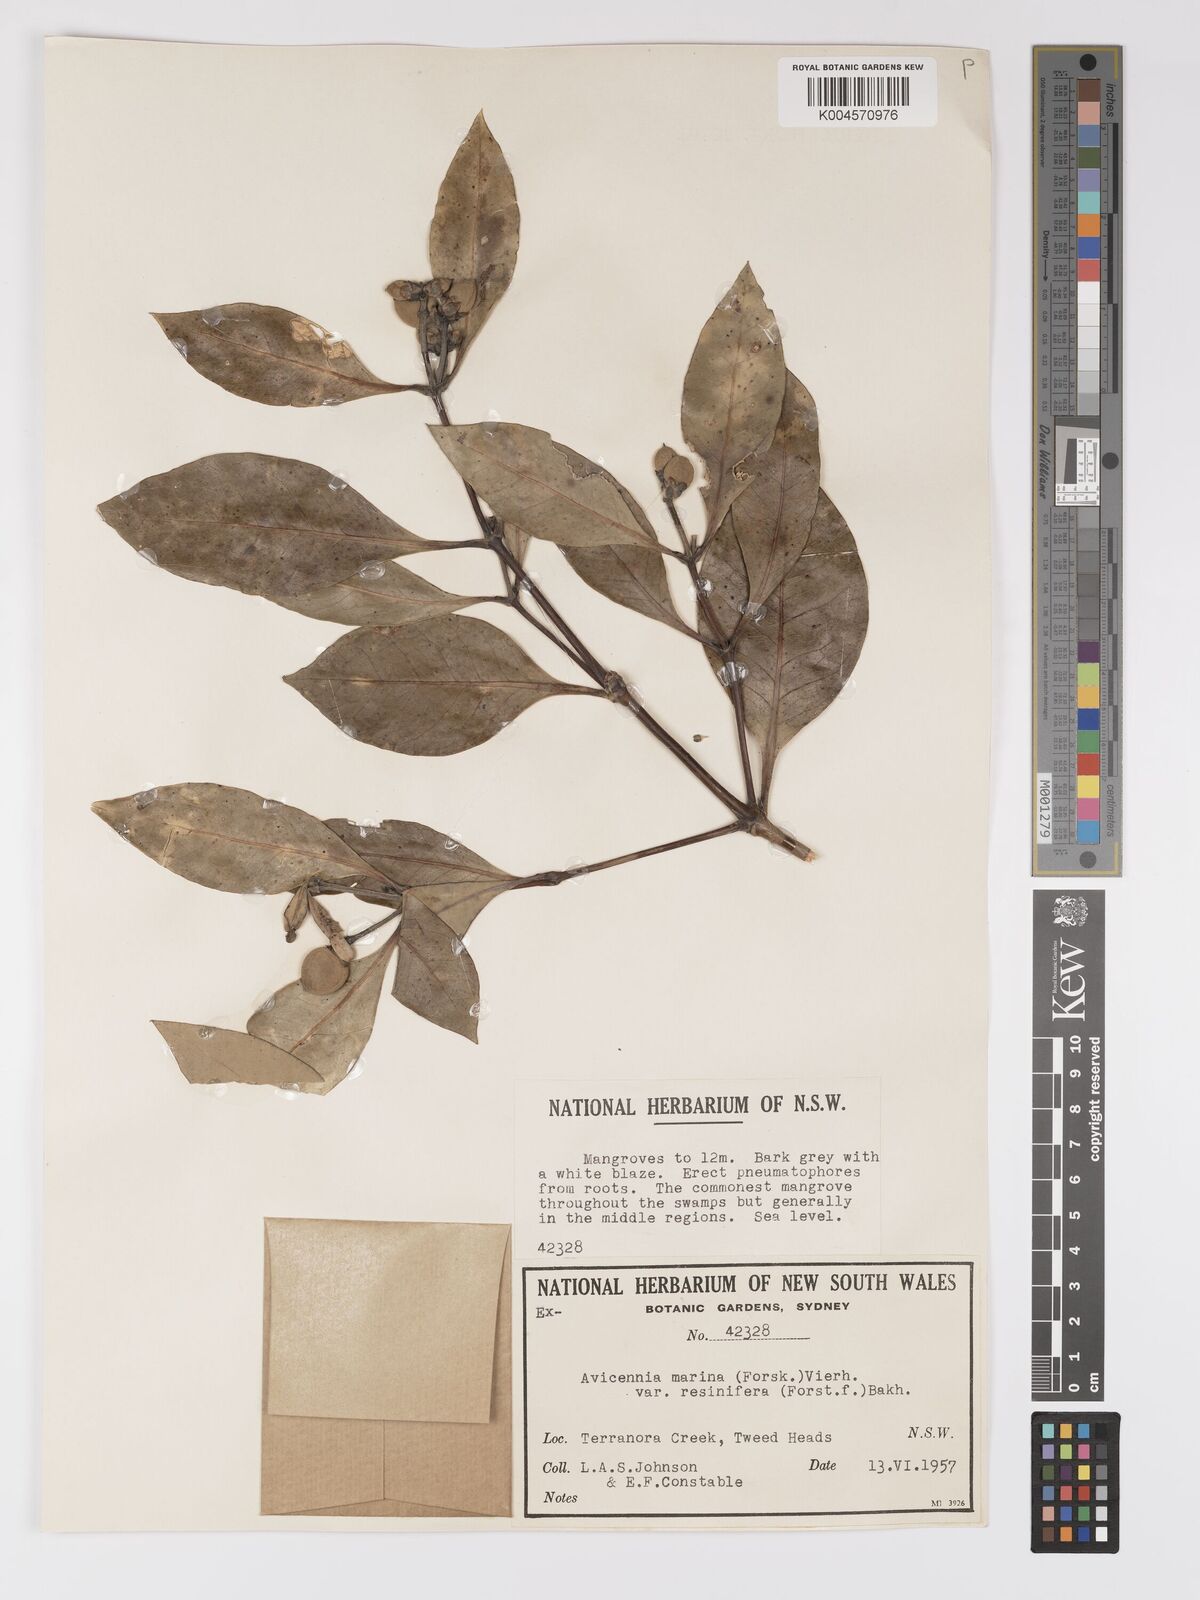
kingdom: Plantae
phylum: Tracheophyta
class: Magnoliopsida
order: Lamiales
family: Acanthaceae
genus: Avicennia
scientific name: Avicennia marina
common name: Gray mangrove
